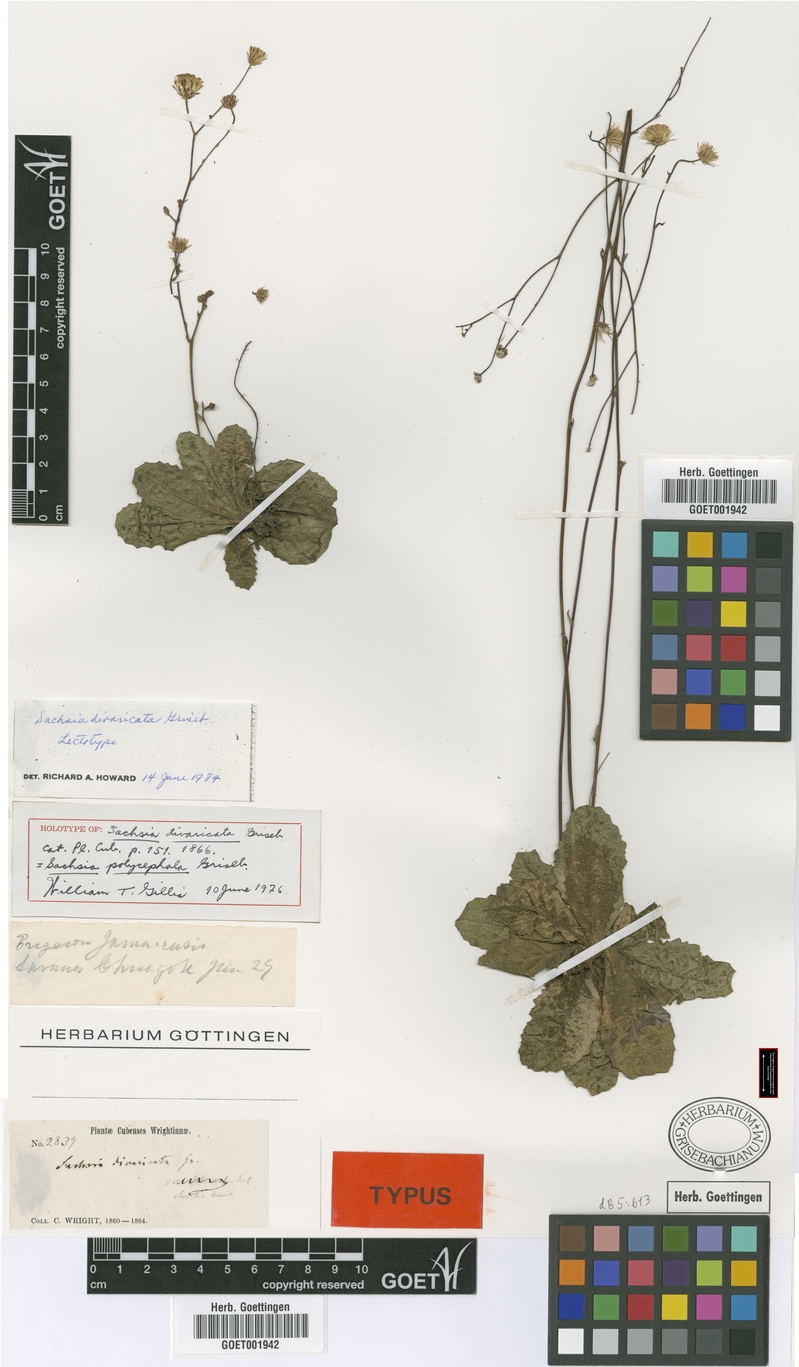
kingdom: Plantae
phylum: Tracheophyta
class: Magnoliopsida
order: Asterales
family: Asteraceae
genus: Sachsia
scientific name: Sachsia polycephala
